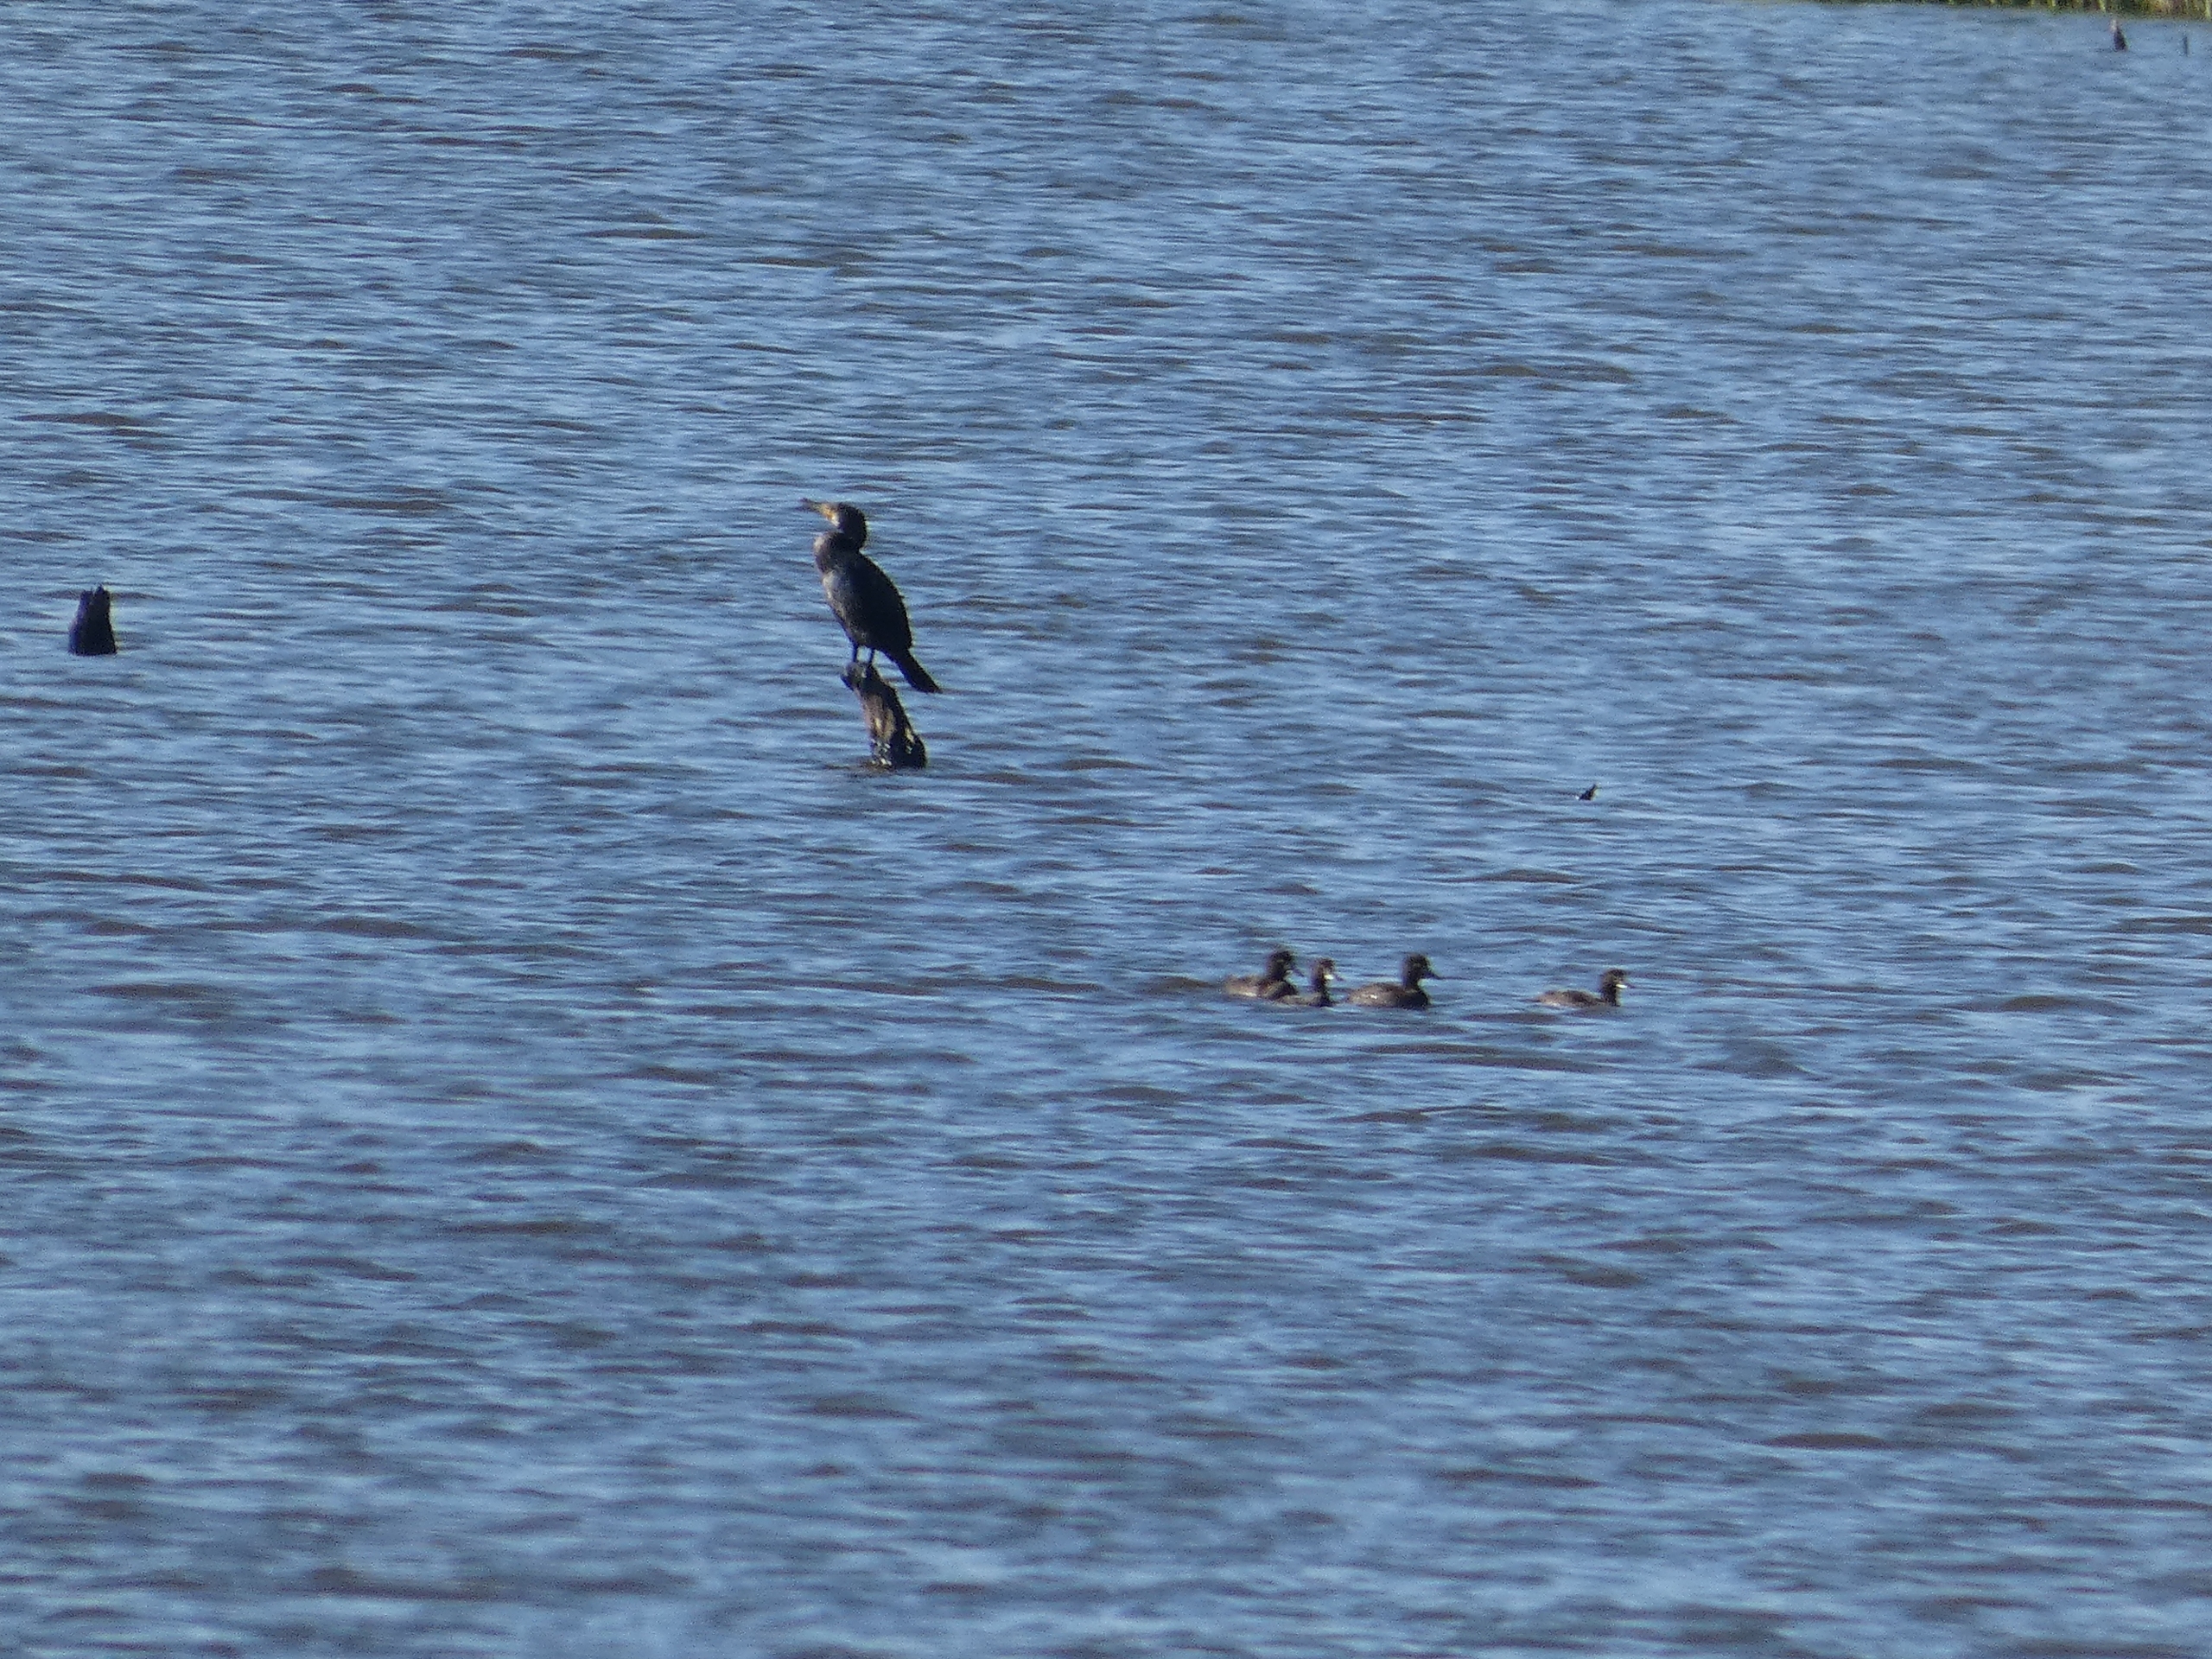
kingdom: Animalia
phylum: Chordata
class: Aves
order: Suliformes
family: Phalacrocoracidae
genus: Phalacrocorax
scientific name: Phalacrocorax carbo
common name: Skarv
